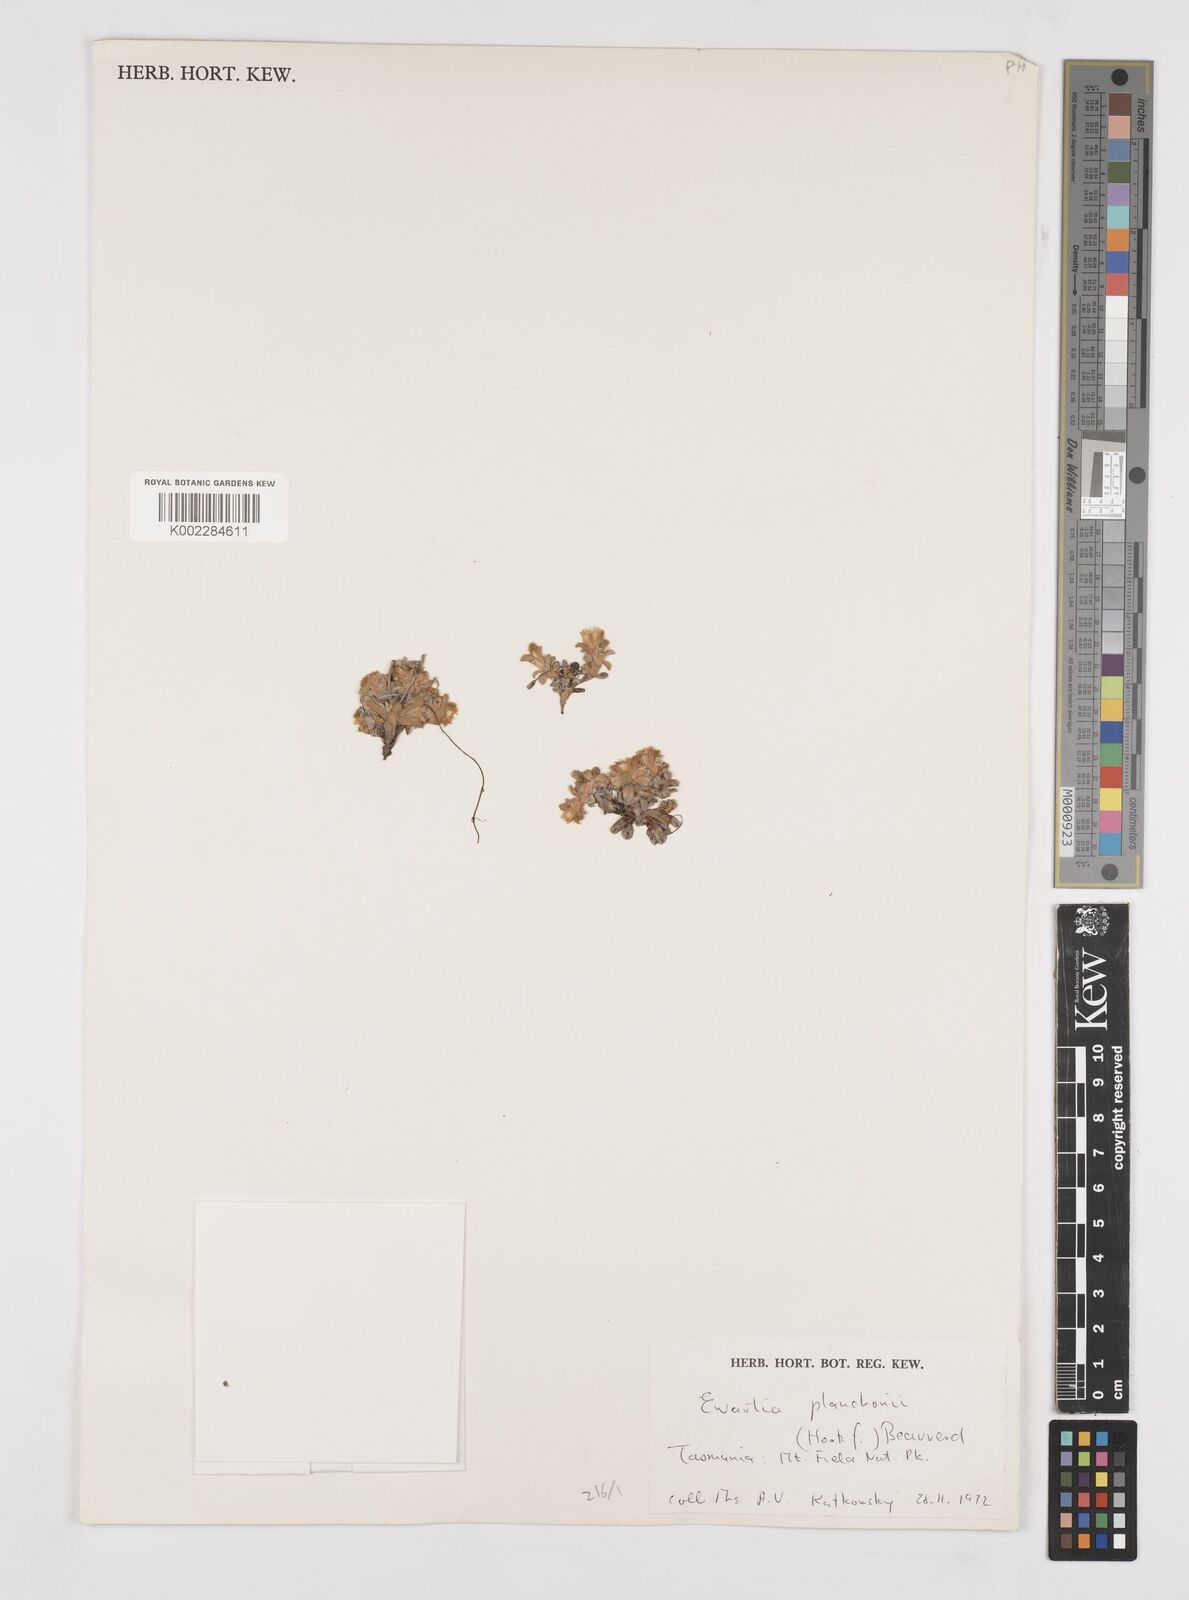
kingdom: Plantae
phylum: Tracheophyta
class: Magnoliopsida
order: Asterales
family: Asteraceae
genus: Ewartia
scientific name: Ewartia planchonii
